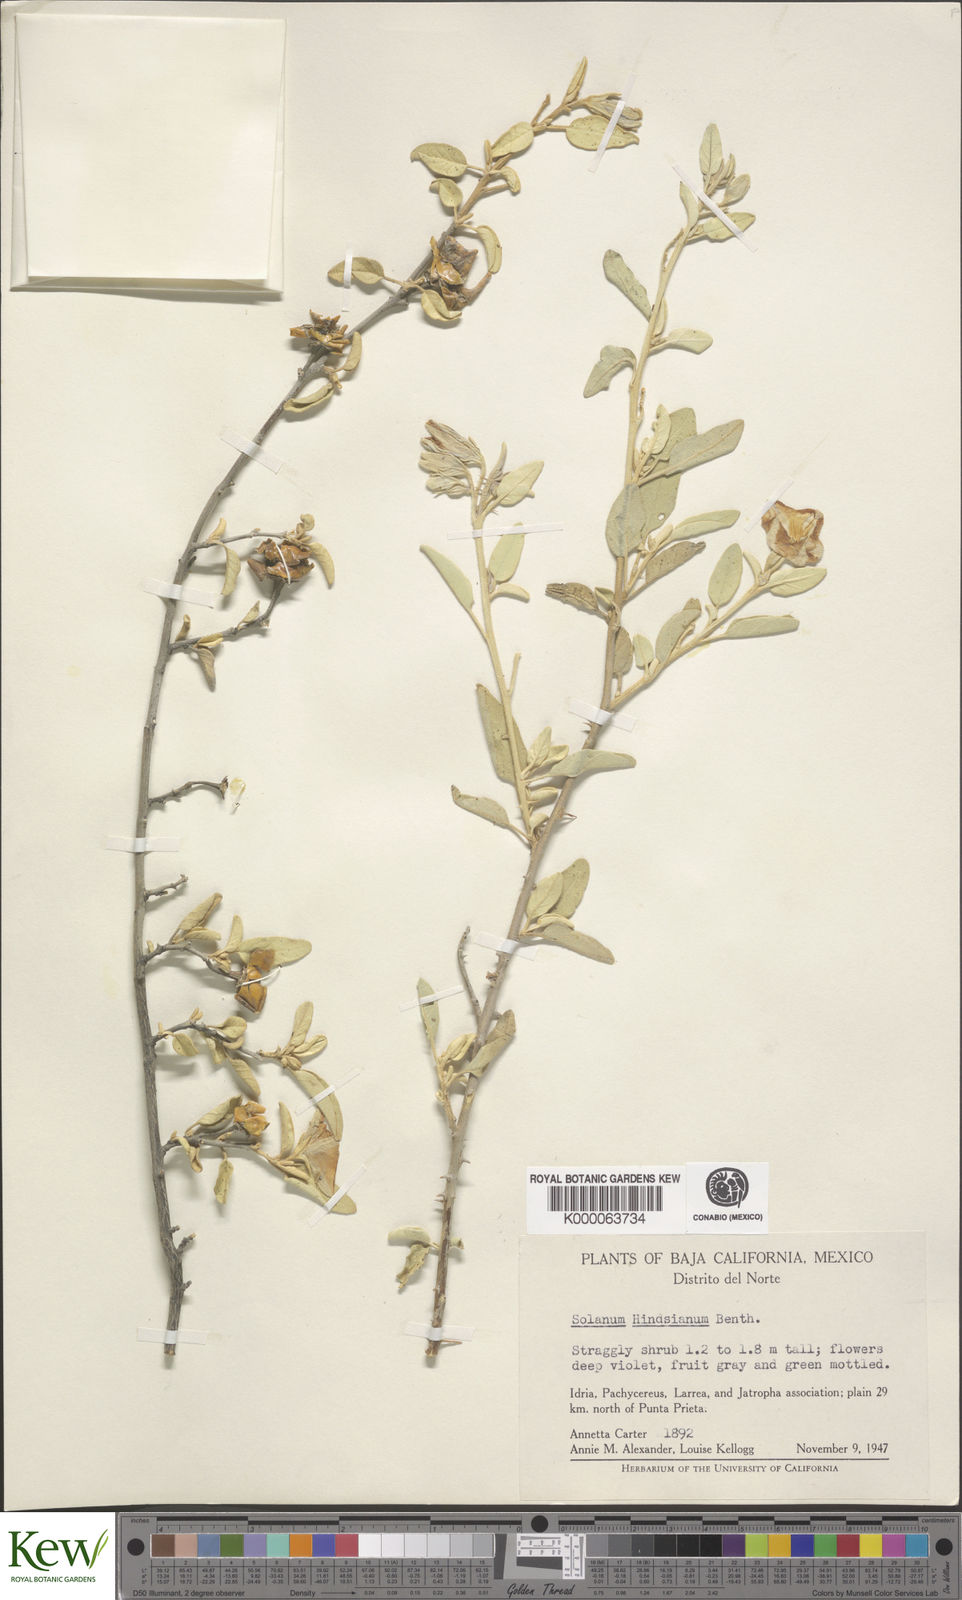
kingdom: Plantae
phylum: Tracheophyta
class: Magnoliopsida
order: Solanales
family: Solanaceae
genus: Solanum
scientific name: Solanum hindsianum
